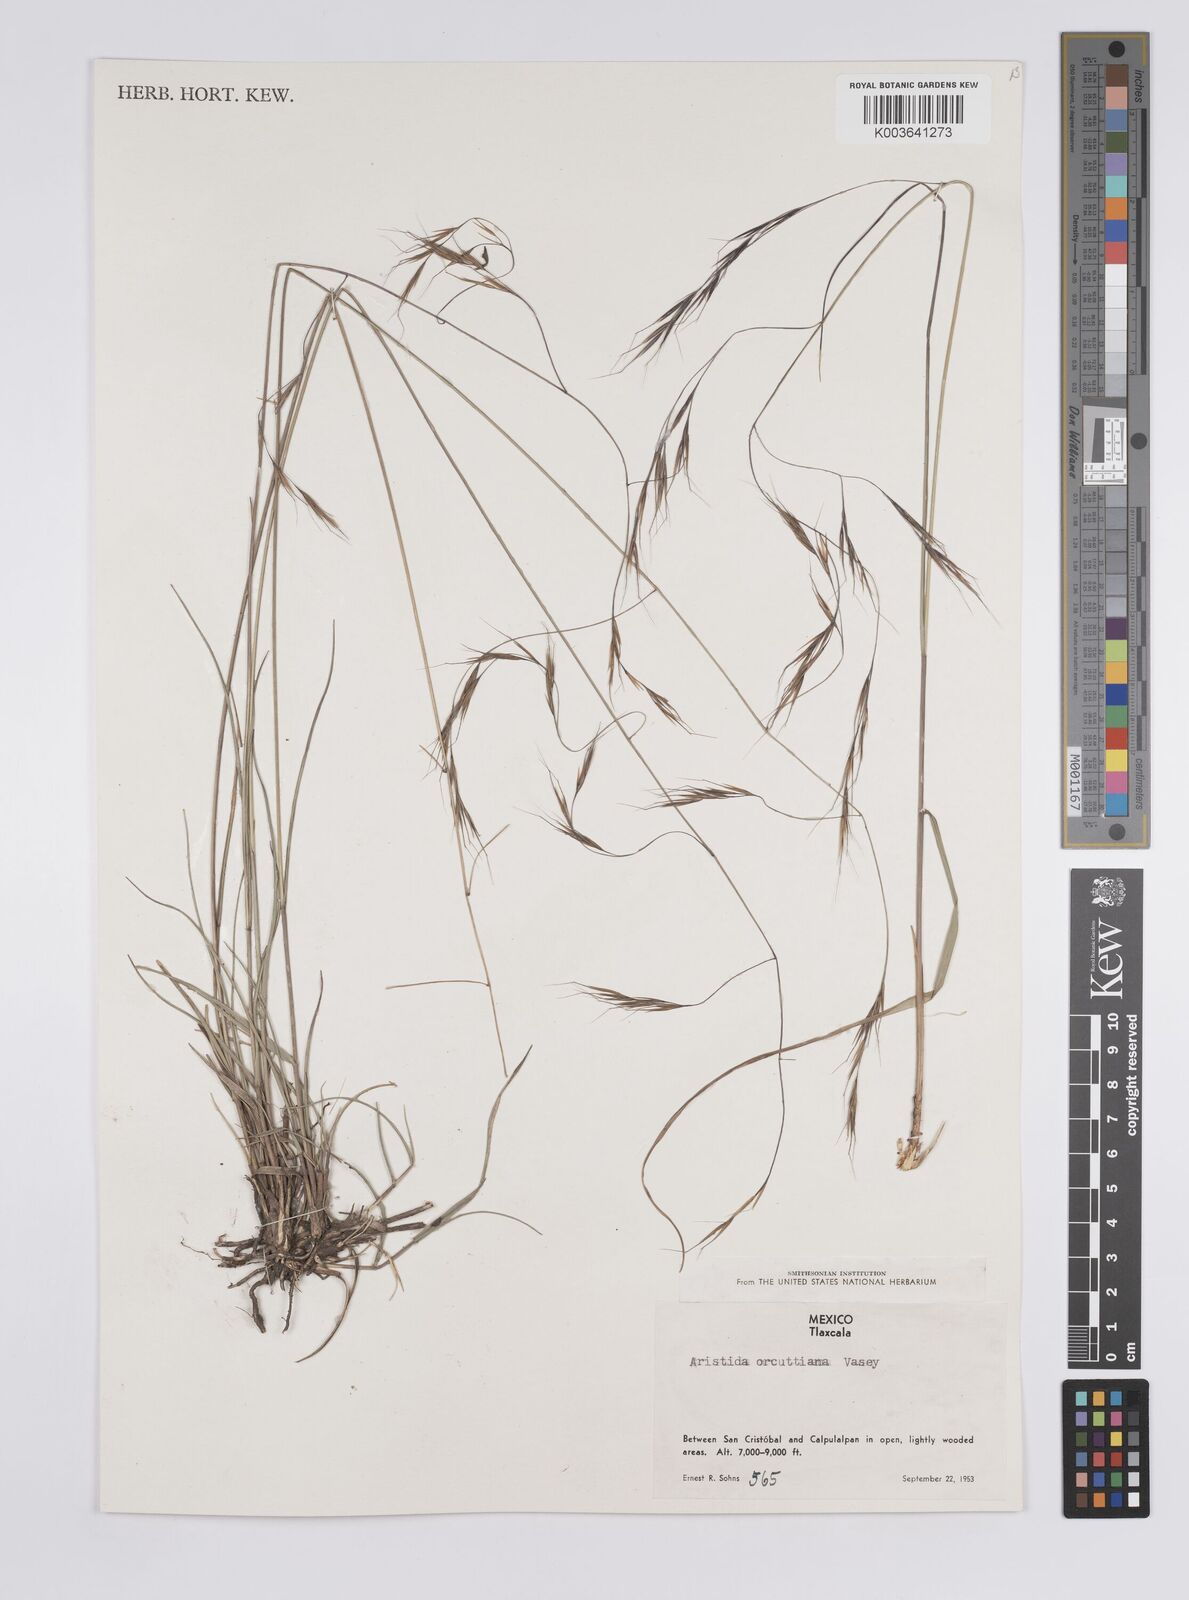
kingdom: Plantae
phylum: Tracheophyta
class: Liliopsida
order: Poales
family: Poaceae
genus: Aristida
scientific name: Aristida schiedeana
